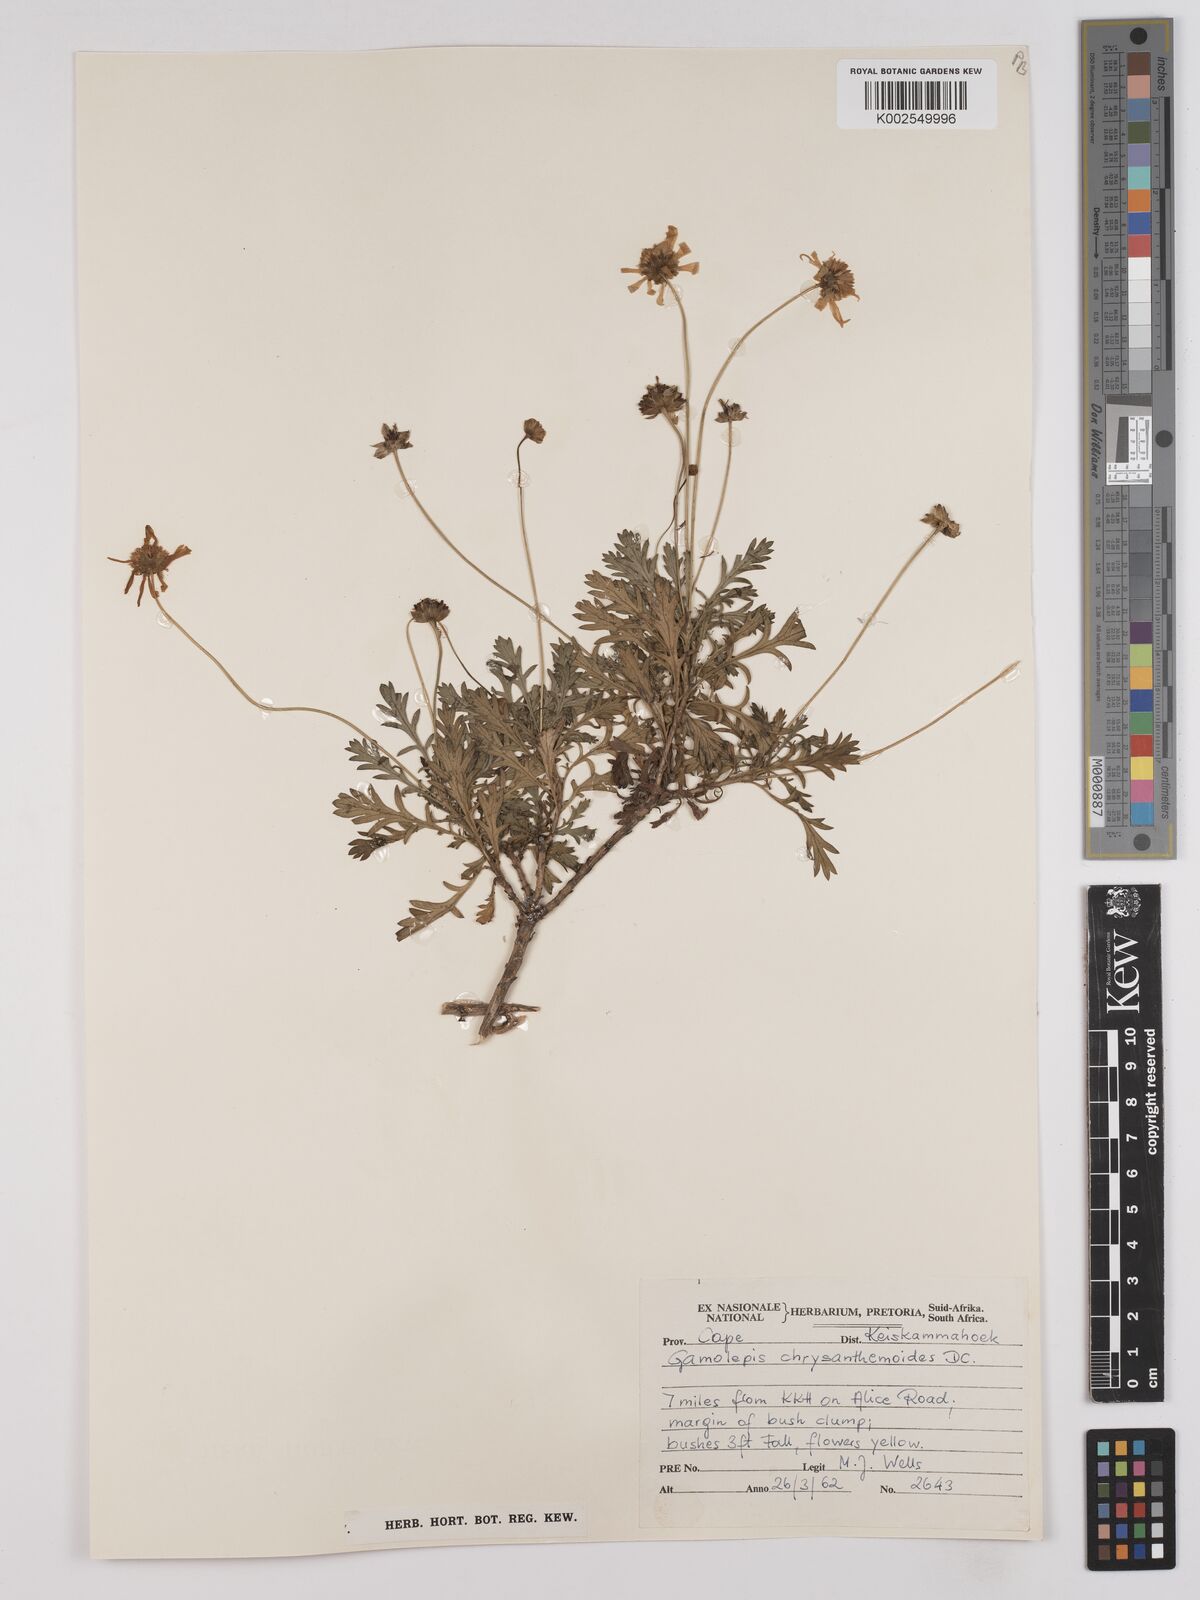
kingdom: Plantae
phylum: Tracheophyta
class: Magnoliopsida
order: Asterales
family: Asteraceae
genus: Euryops
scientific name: Euryops chrysanthemoides
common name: Bull's eye
